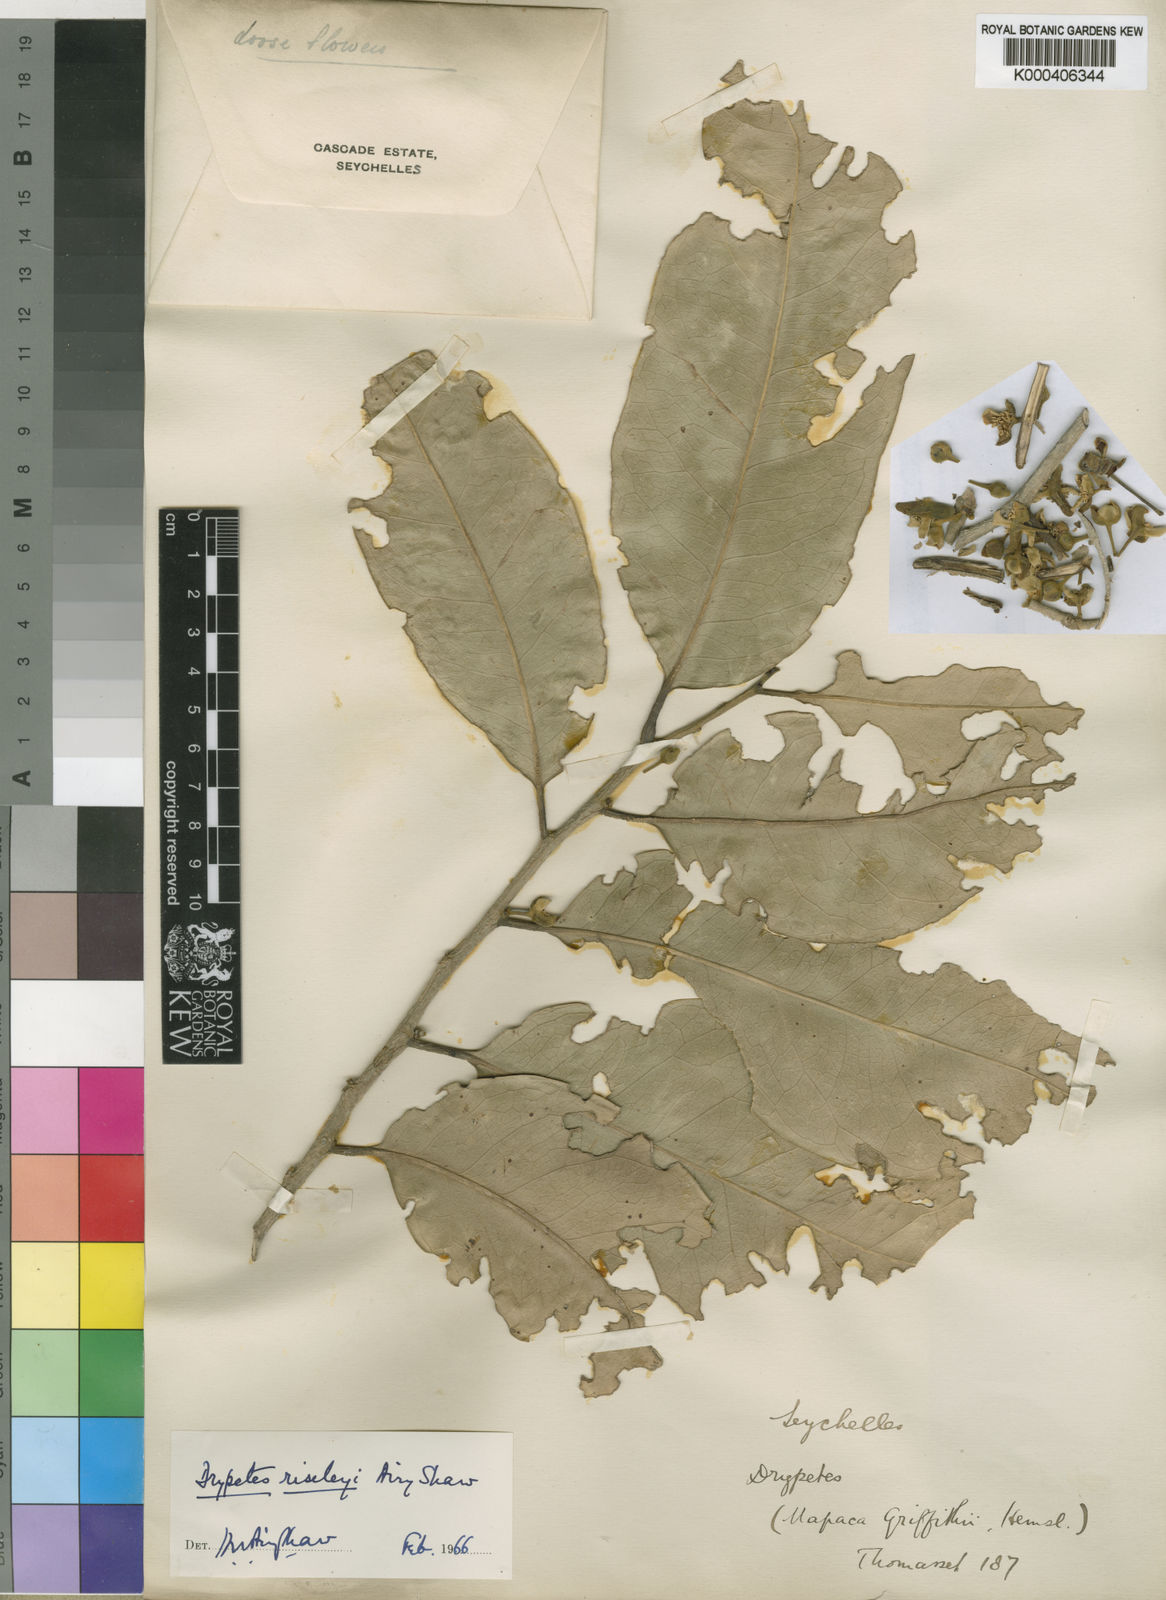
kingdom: Plantae
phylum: Tracheophyta
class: Magnoliopsida
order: Malpighiales
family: Putranjivaceae
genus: Drypetes
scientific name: Drypetes riseleyi
